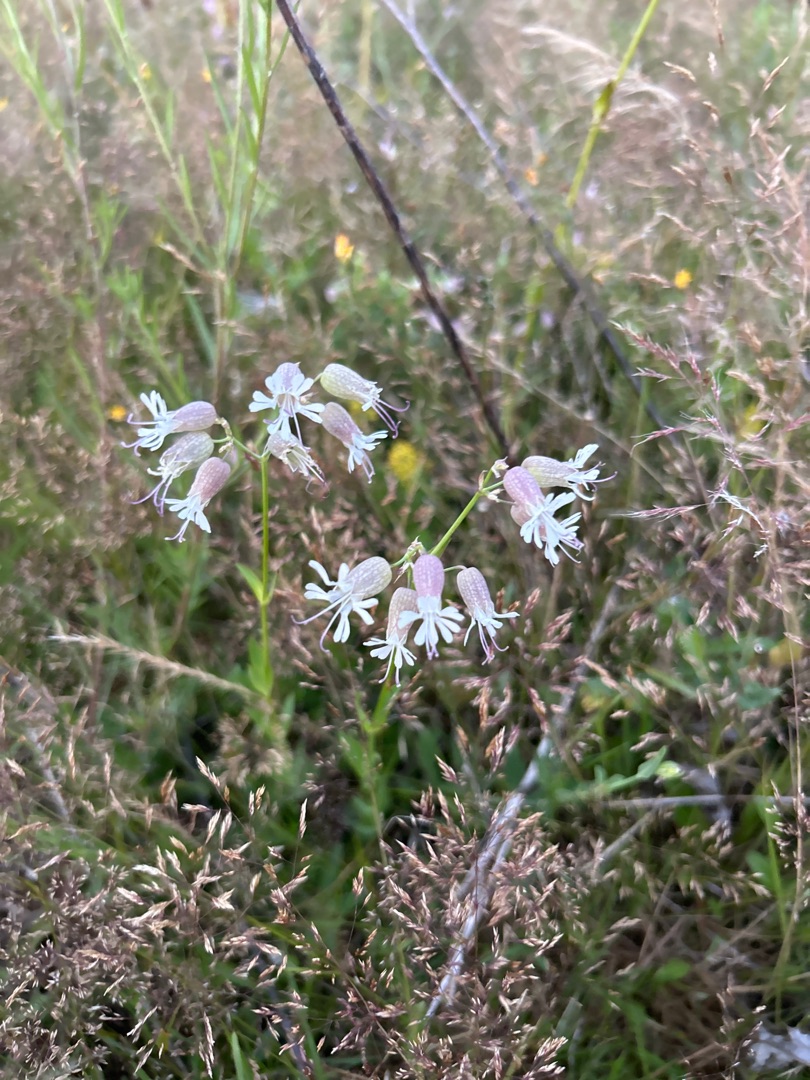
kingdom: Plantae
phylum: Tracheophyta
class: Magnoliopsida
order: Caryophyllales
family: Caryophyllaceae
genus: Silene
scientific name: Silene vulgaris
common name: Blæresmælde
